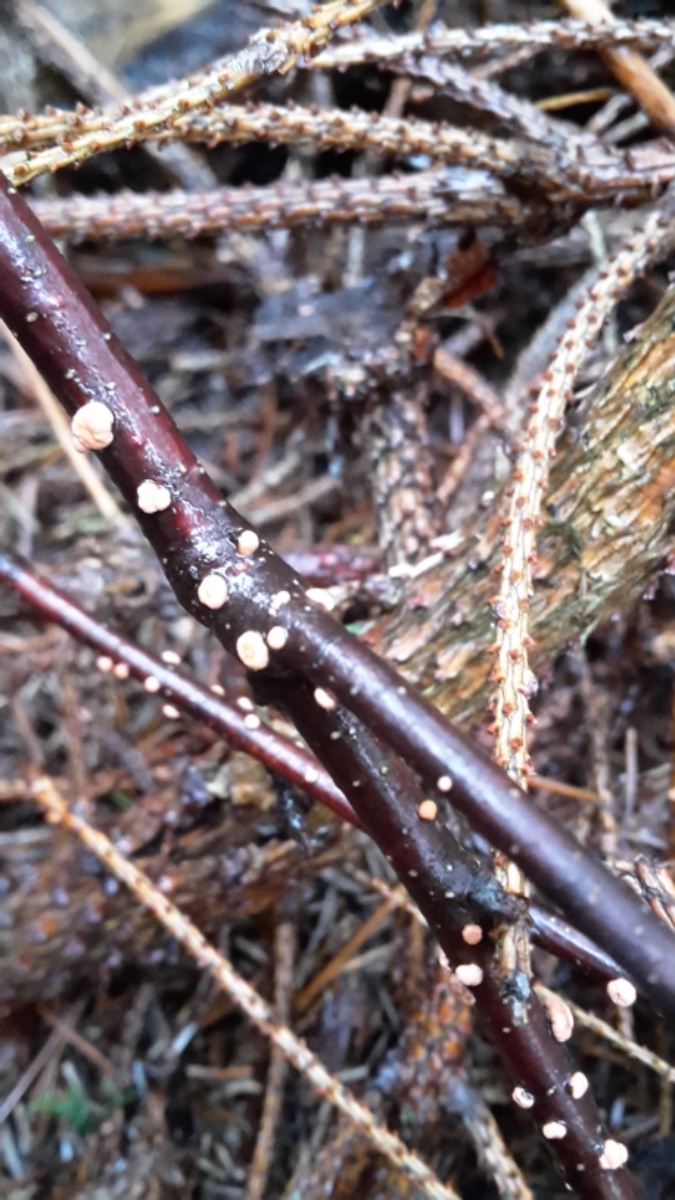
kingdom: Fungi
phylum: Ascomycota
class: Sordariomycetes
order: Hypocreales
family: Nectriaceae
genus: Nectria
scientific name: Nectria cinnabarina
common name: almindelig cinnobersvamp
